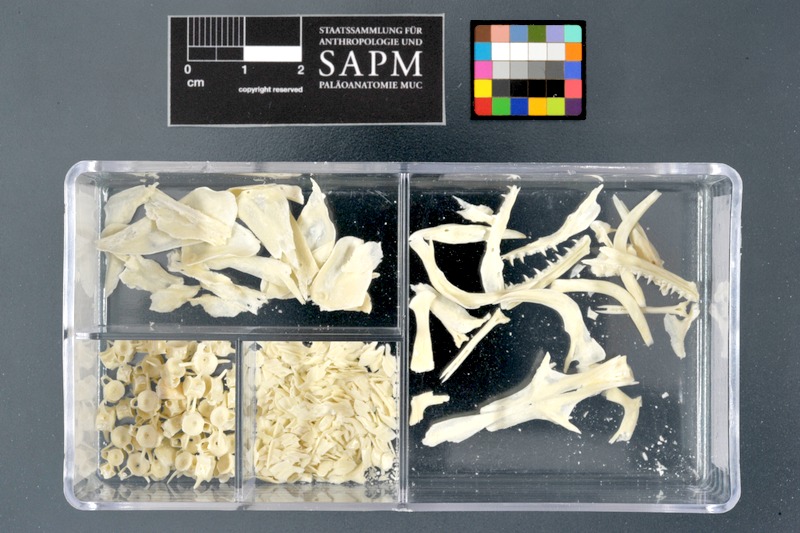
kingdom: Animalia
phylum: Chordata
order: Polypteriformes
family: Polypteridae
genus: Polypterus
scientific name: Polypterus senegalus
